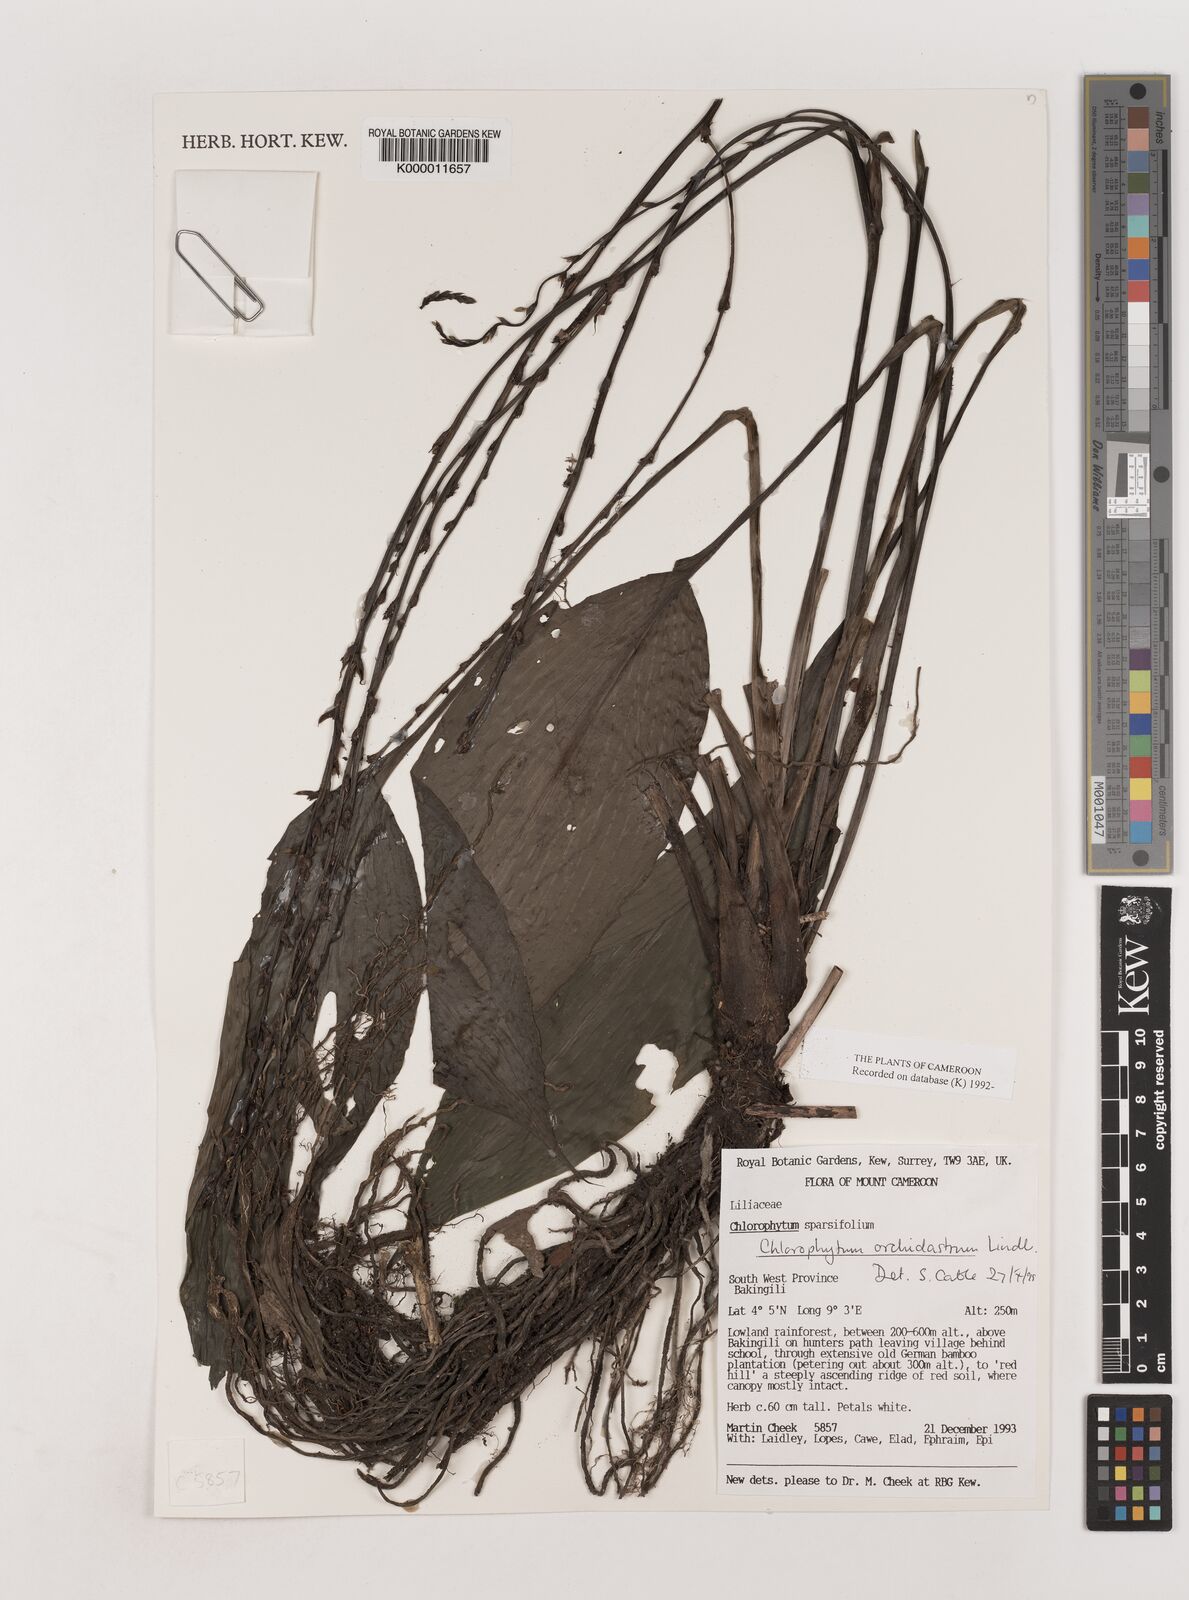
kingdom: Plantae
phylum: Tracheophyta
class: Liliopsida
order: Asparagales
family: Asparagaceae
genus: Chlorophytum
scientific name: Chlorophytum orchidastrum
